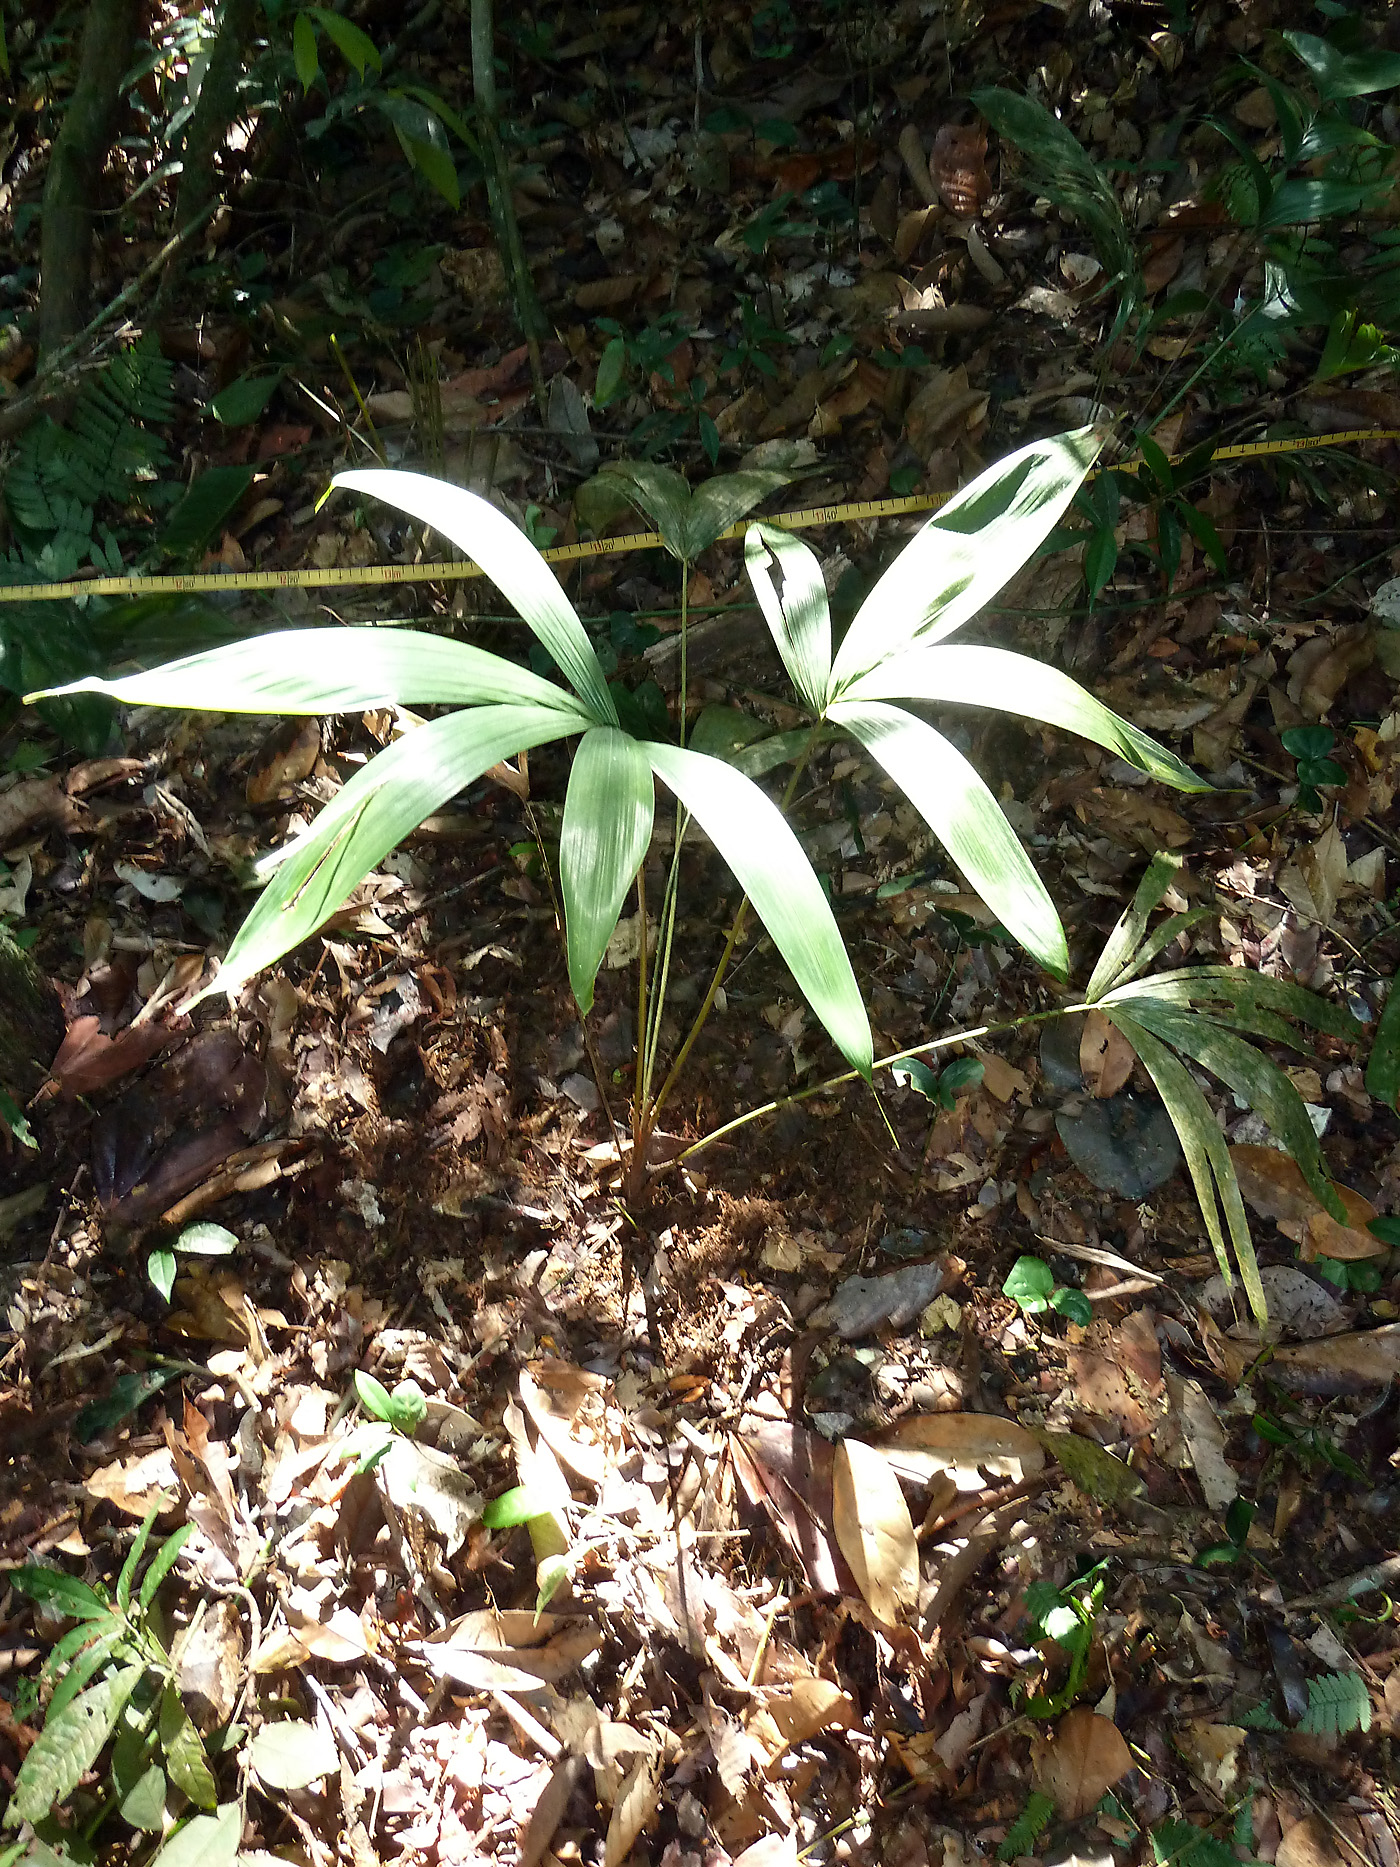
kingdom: Plantae
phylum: Tracheophyta
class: Liliopsida
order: Arecales
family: Arecaceae
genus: Oenocarpus
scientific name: Oenocarpus bataua
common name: Bataua palm
